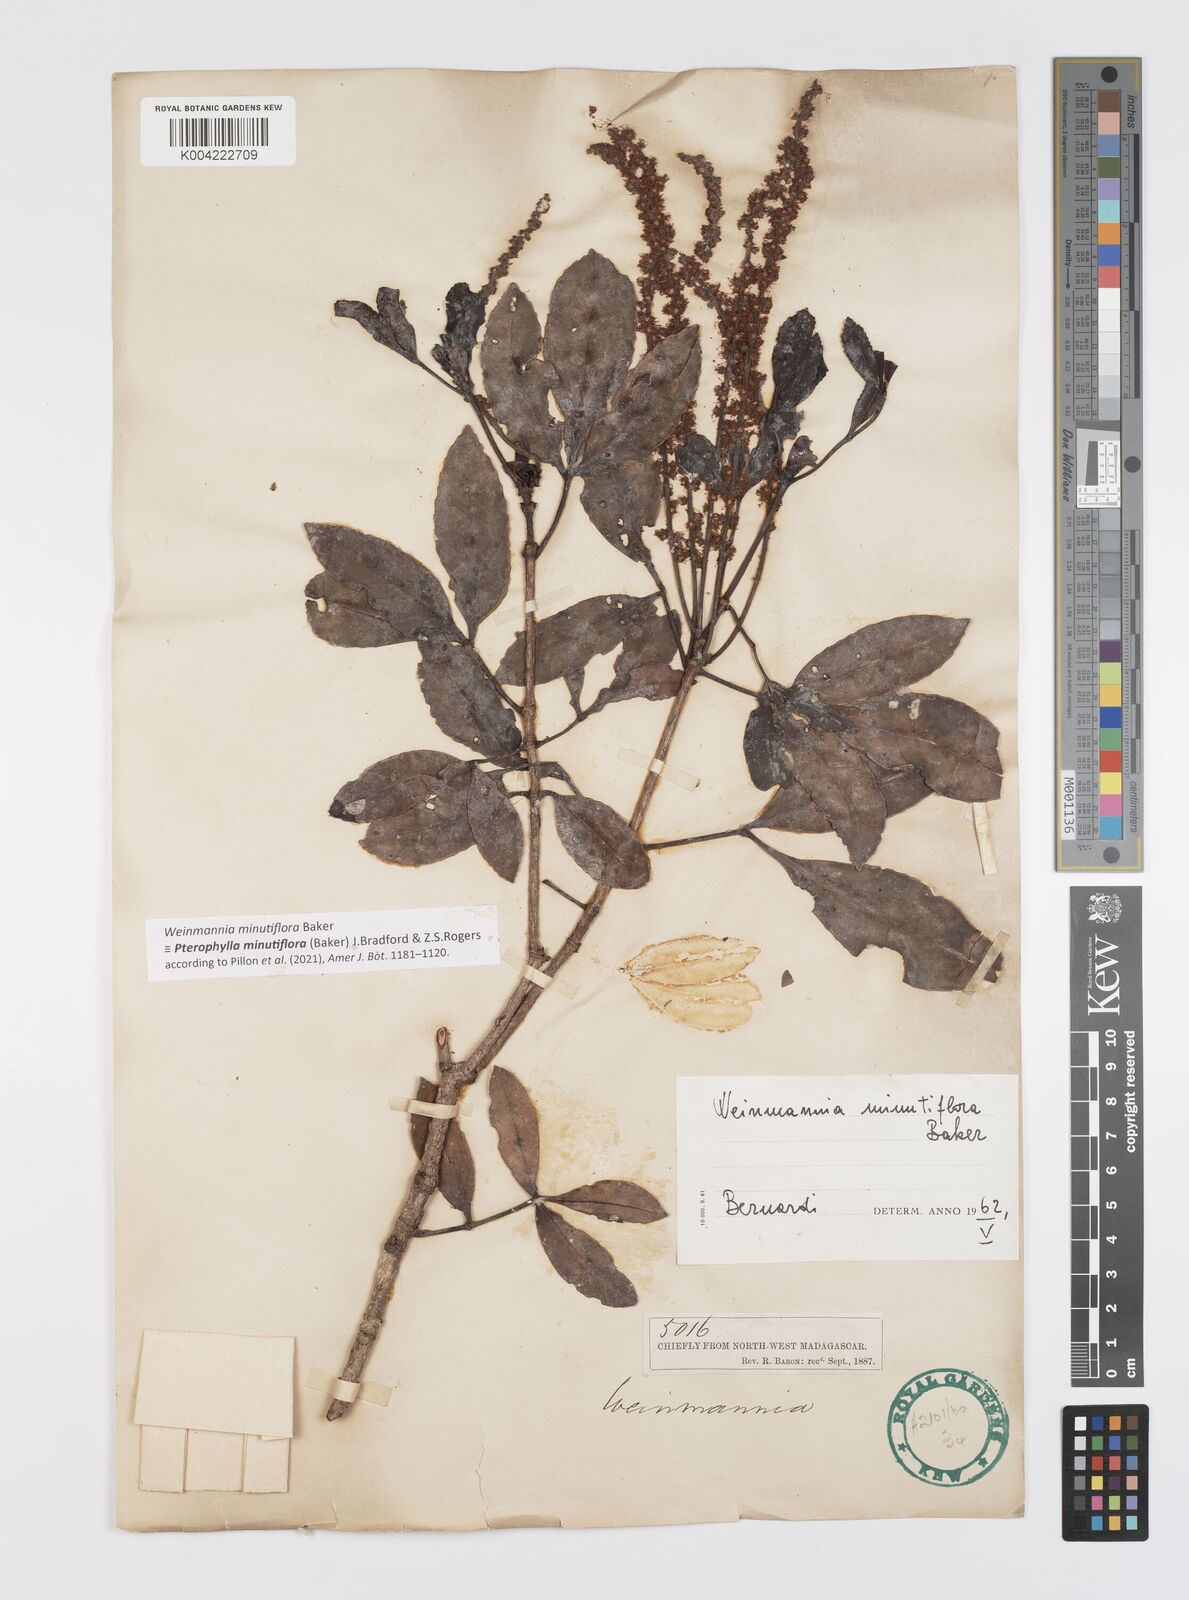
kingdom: Plantae
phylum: Tracheophyta
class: Magnoliopsida
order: Oxalidales
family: Cunoniaceae
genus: Pterophylla
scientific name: Pterophylla
